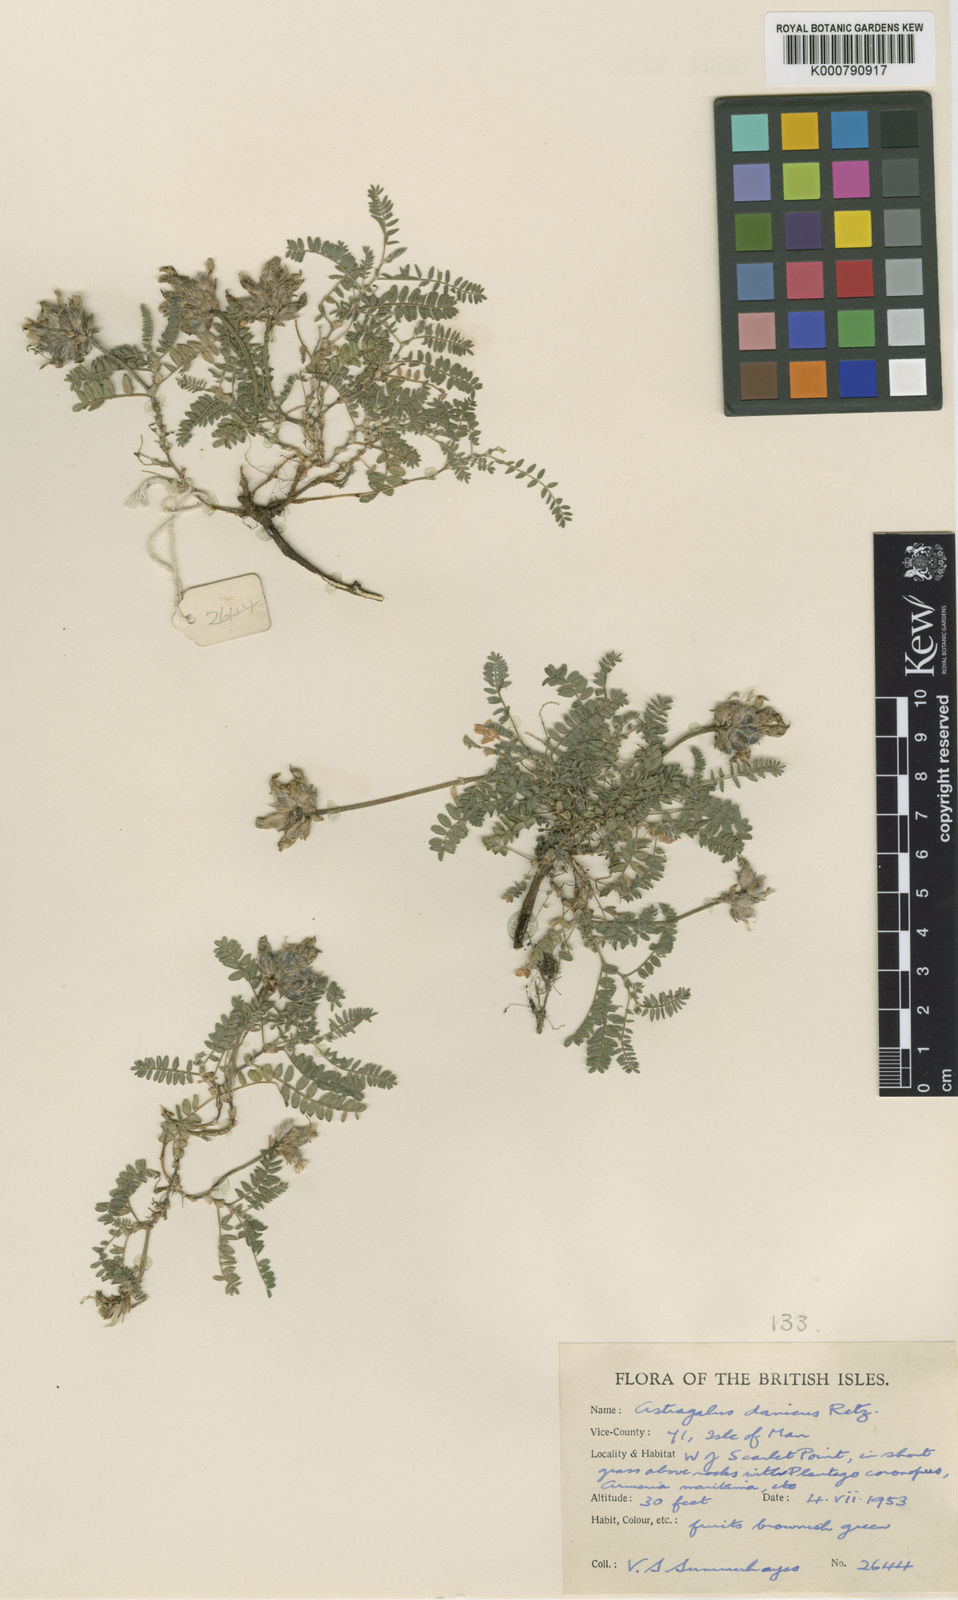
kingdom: Plantae
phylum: Tracheophyta
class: Magnoliopsida
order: Fabales
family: Fabaceae
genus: Astragalus
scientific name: Astragalus danicus
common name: Purple milk-vetch
